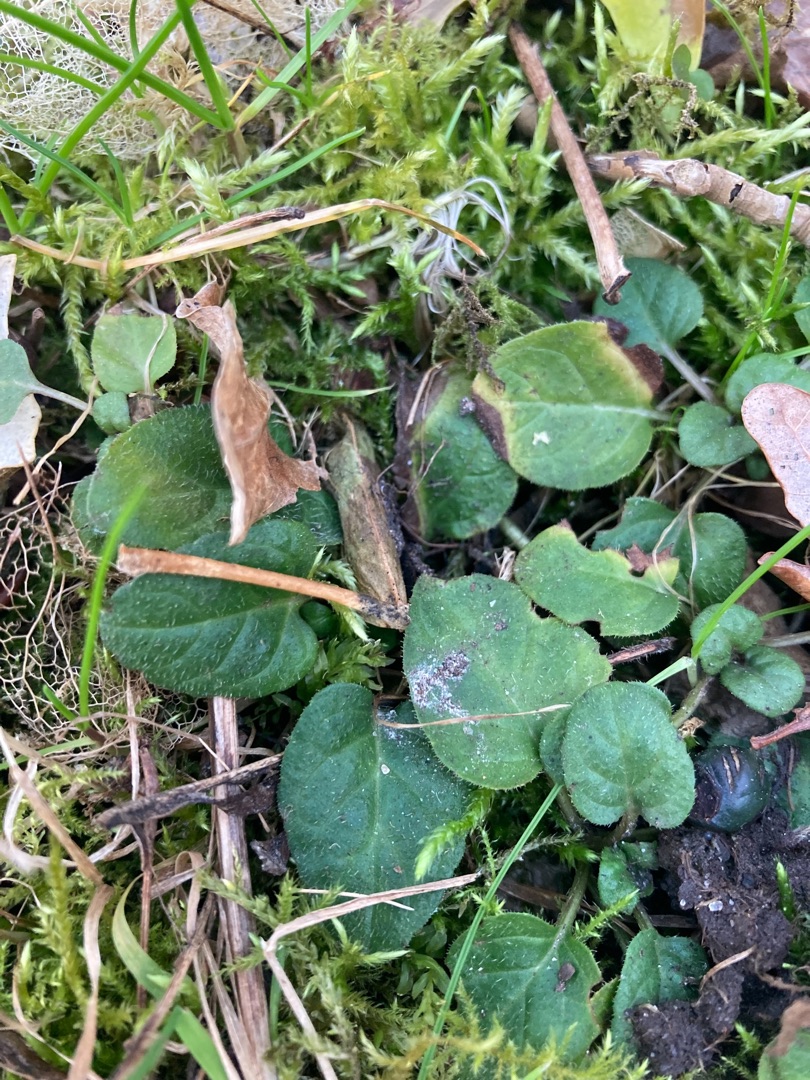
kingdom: Plantae
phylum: Tracheophyta
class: Magnoliopsida
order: Lamiales
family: Lamiaceae
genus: Prunella
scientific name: Prunella vulgaris
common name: Almindelig brunelle
